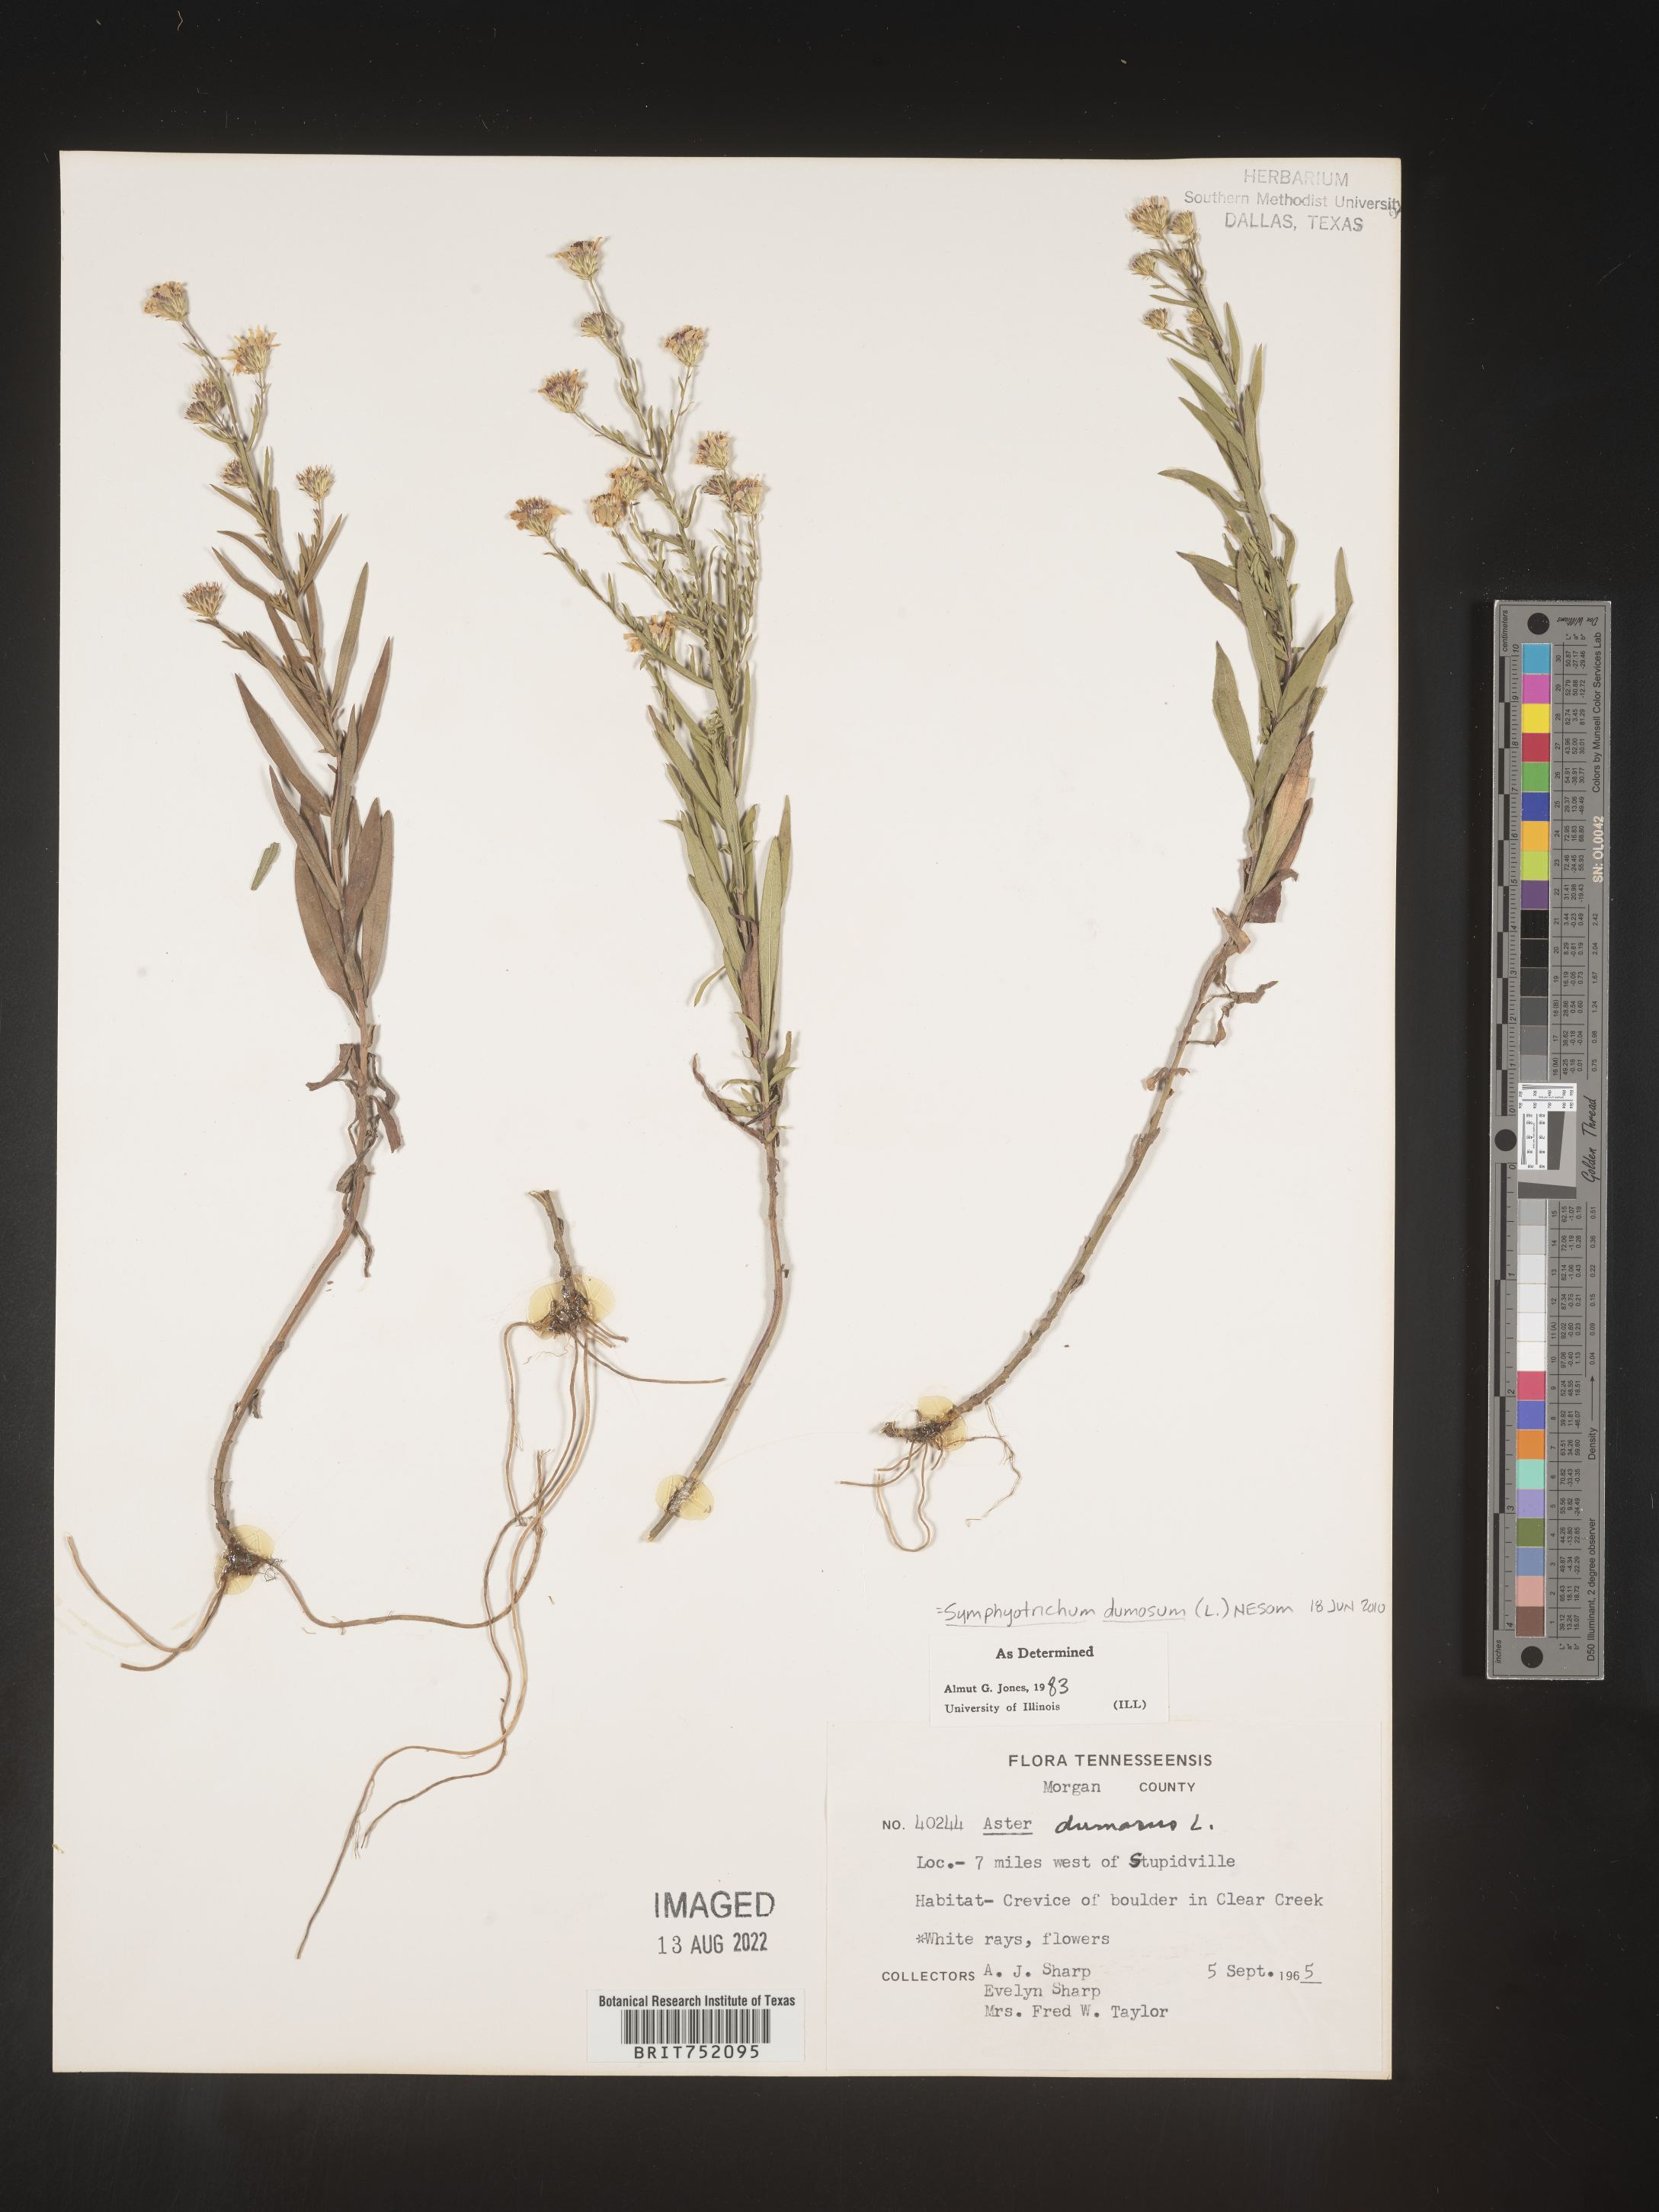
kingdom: Plantae
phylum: Tracheophyta
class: Magnoliopsida
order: Asterales
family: Asteraceae
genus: Symphyotrichum
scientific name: Symphyotrichum dumosum
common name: Bushy aster
